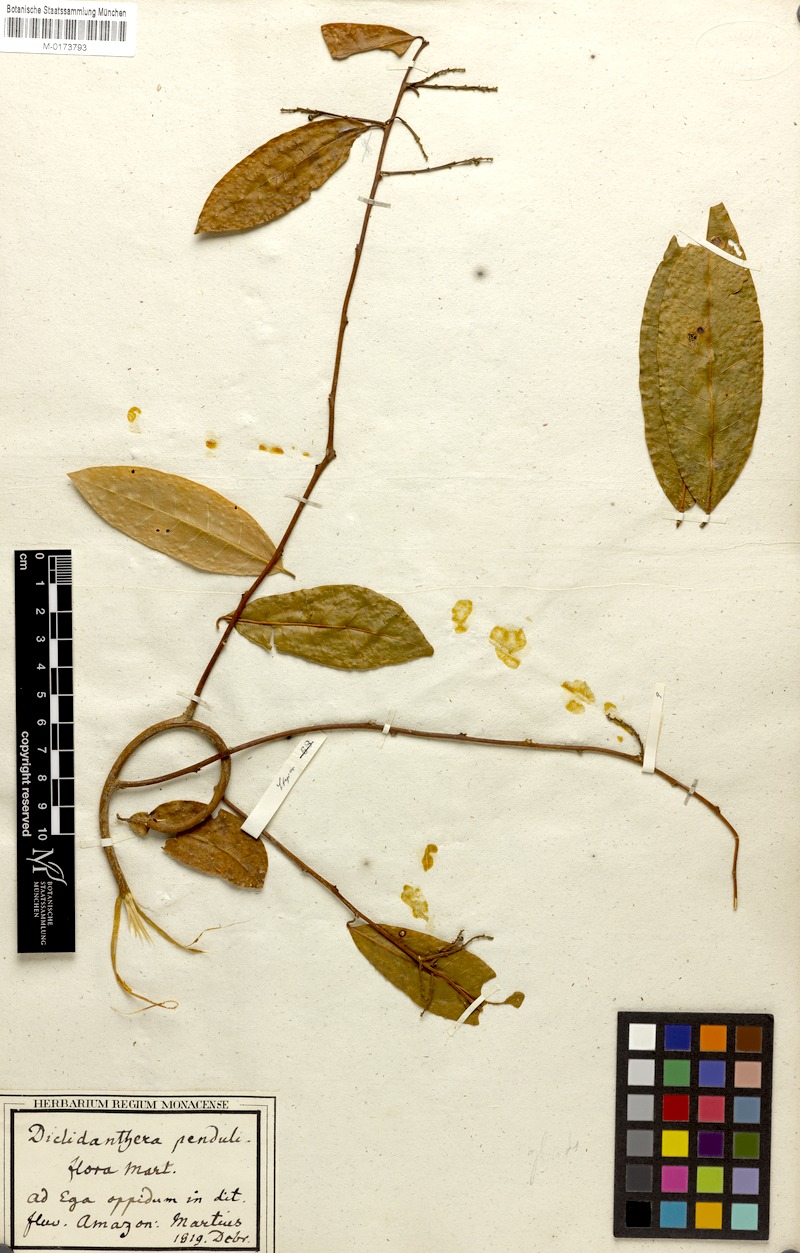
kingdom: Plantae
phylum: Tracheophyta
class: Magnoliopsida
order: Fabales
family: Polygalaceae
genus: Diclidanthera
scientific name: Diclidanthera penduliflora
